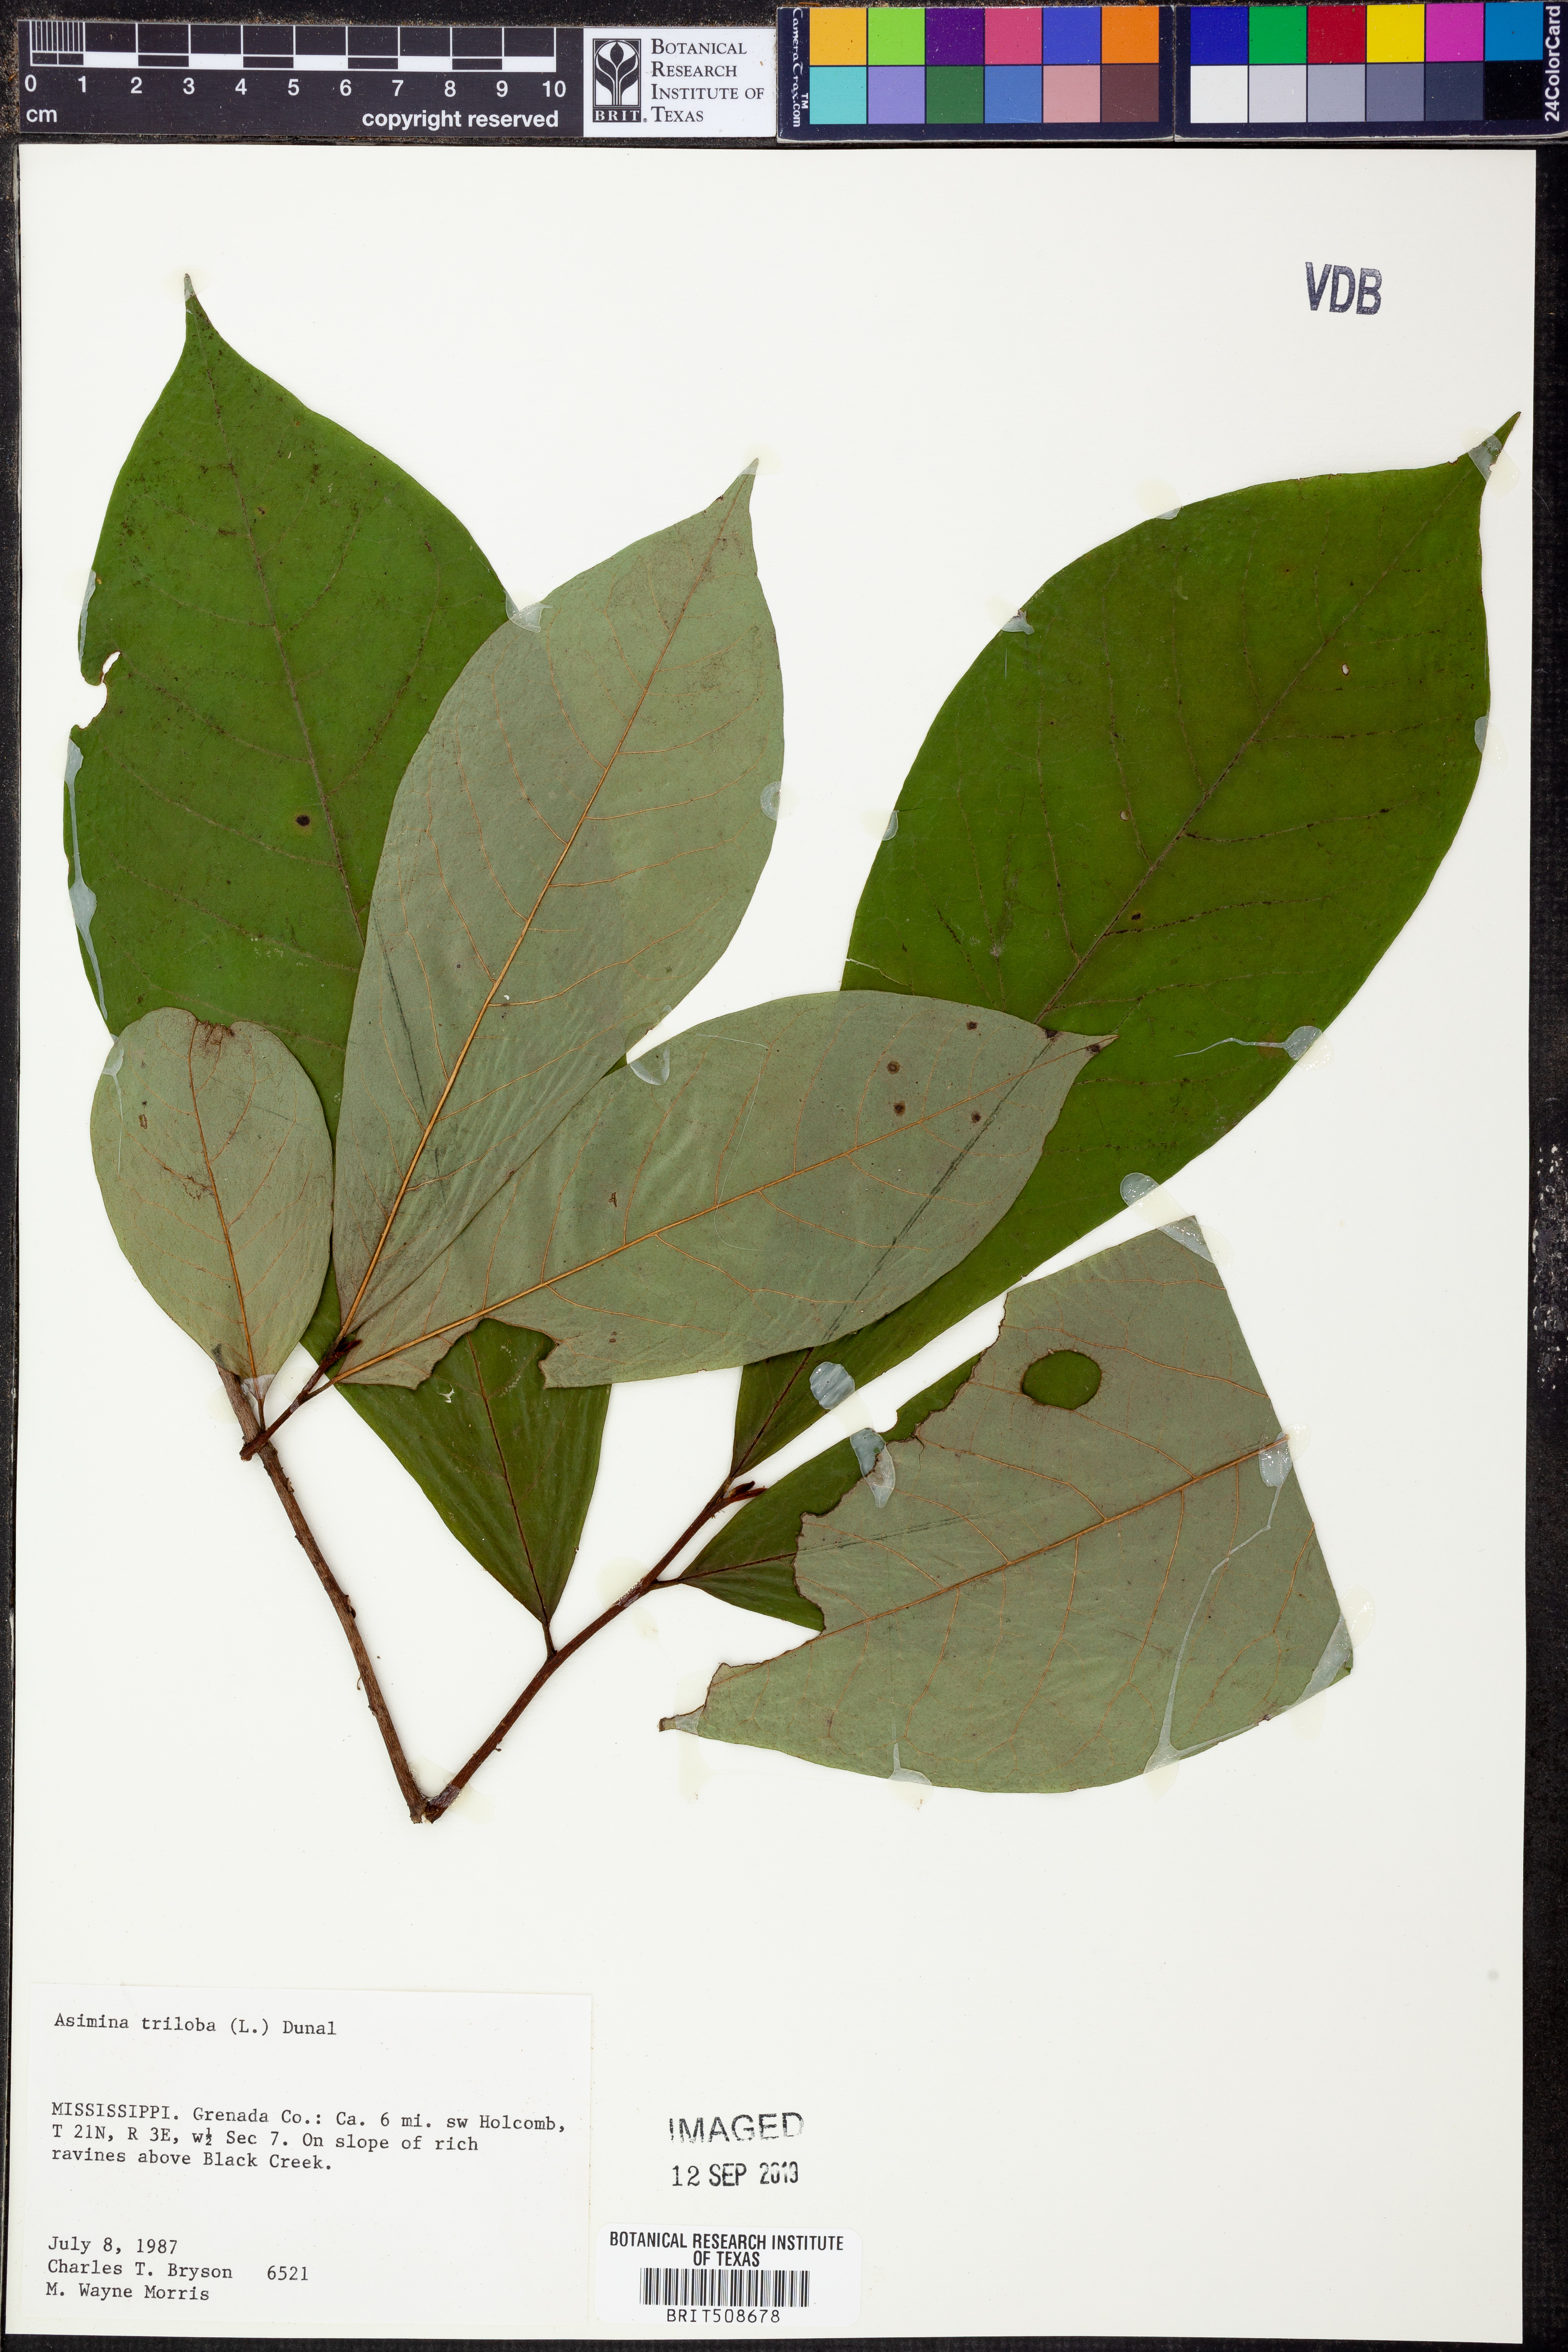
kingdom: Plantae
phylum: Tracheophyta
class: Magnoliopsida
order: Magnoliales
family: Annonaceae
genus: Asimina
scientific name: Asimina triloba
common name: Dog-banana
